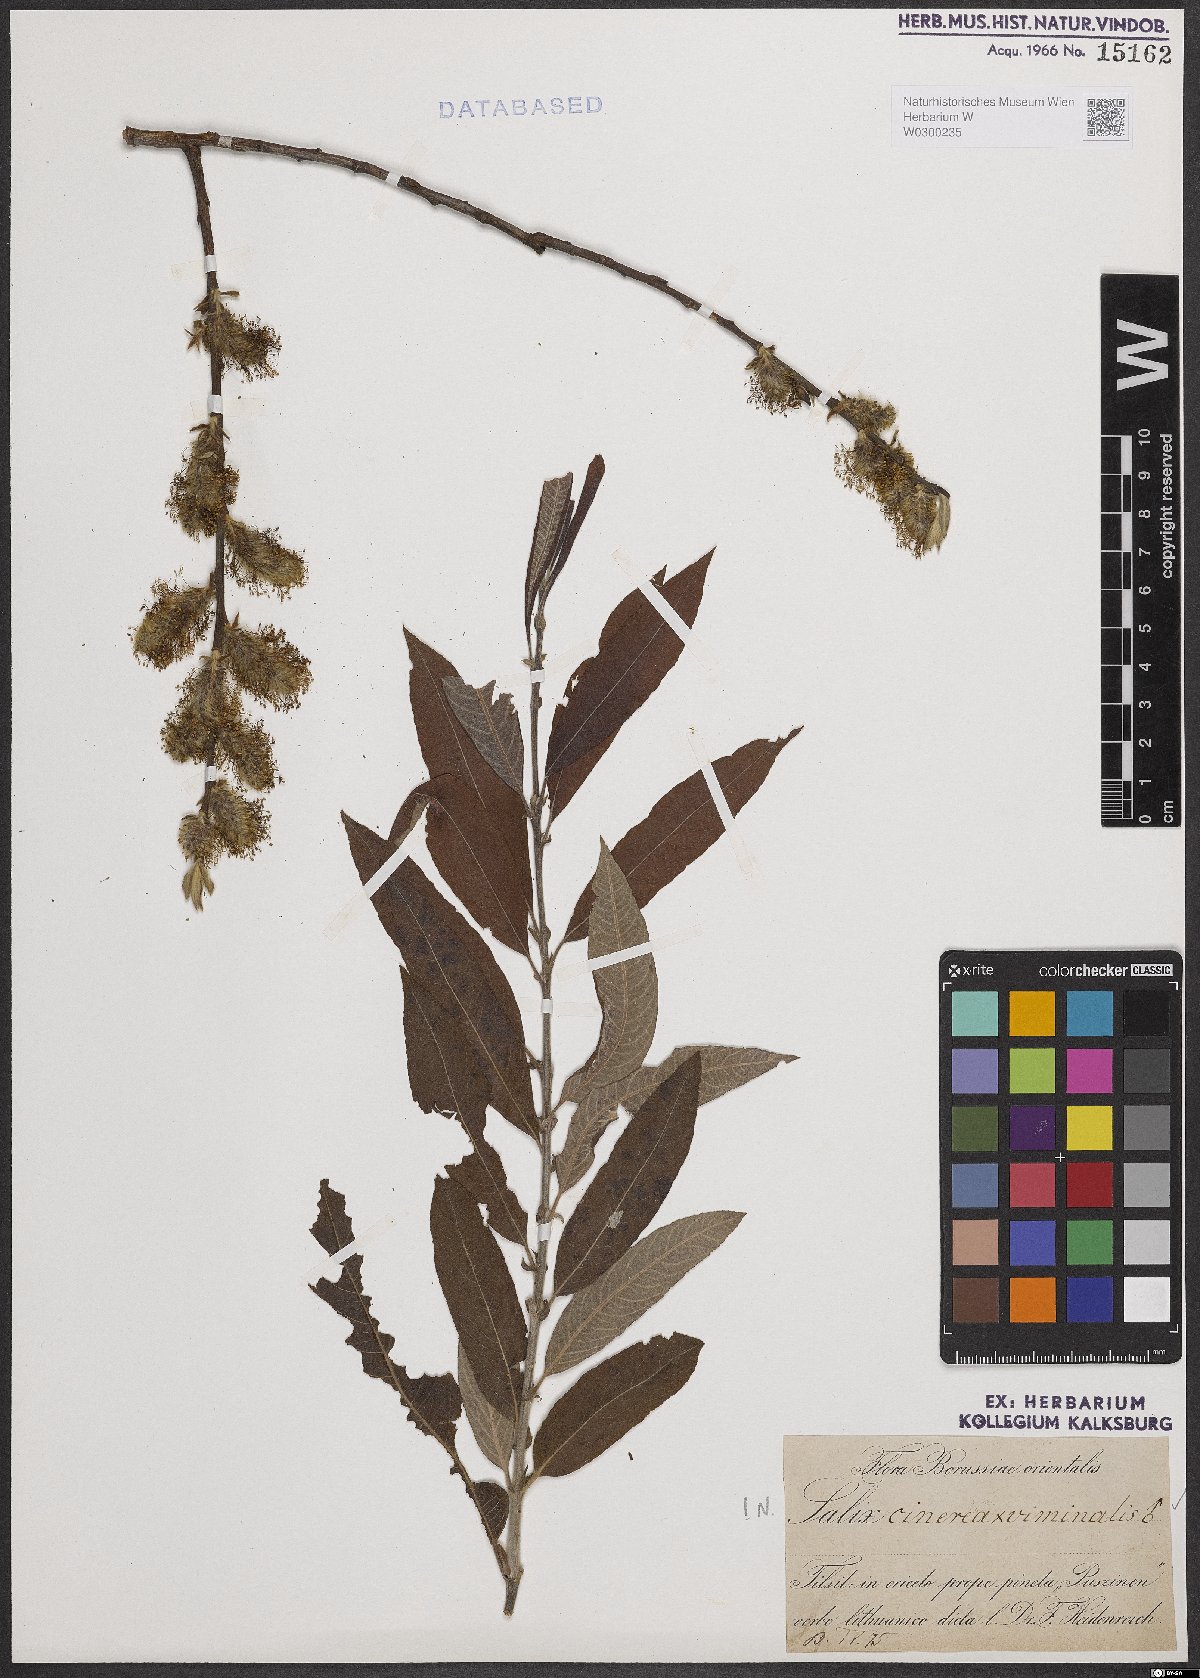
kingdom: Plantae
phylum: Tracheophyta
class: Magnoliopsida
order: Malpighiales
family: Salicaceae
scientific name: Salicaceae
